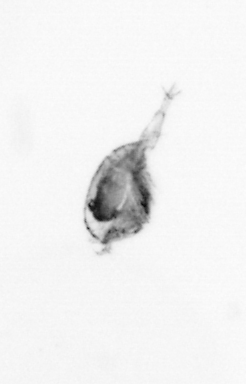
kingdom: Animalia
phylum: Arthropoda
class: Copepoda
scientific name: Copepoda
